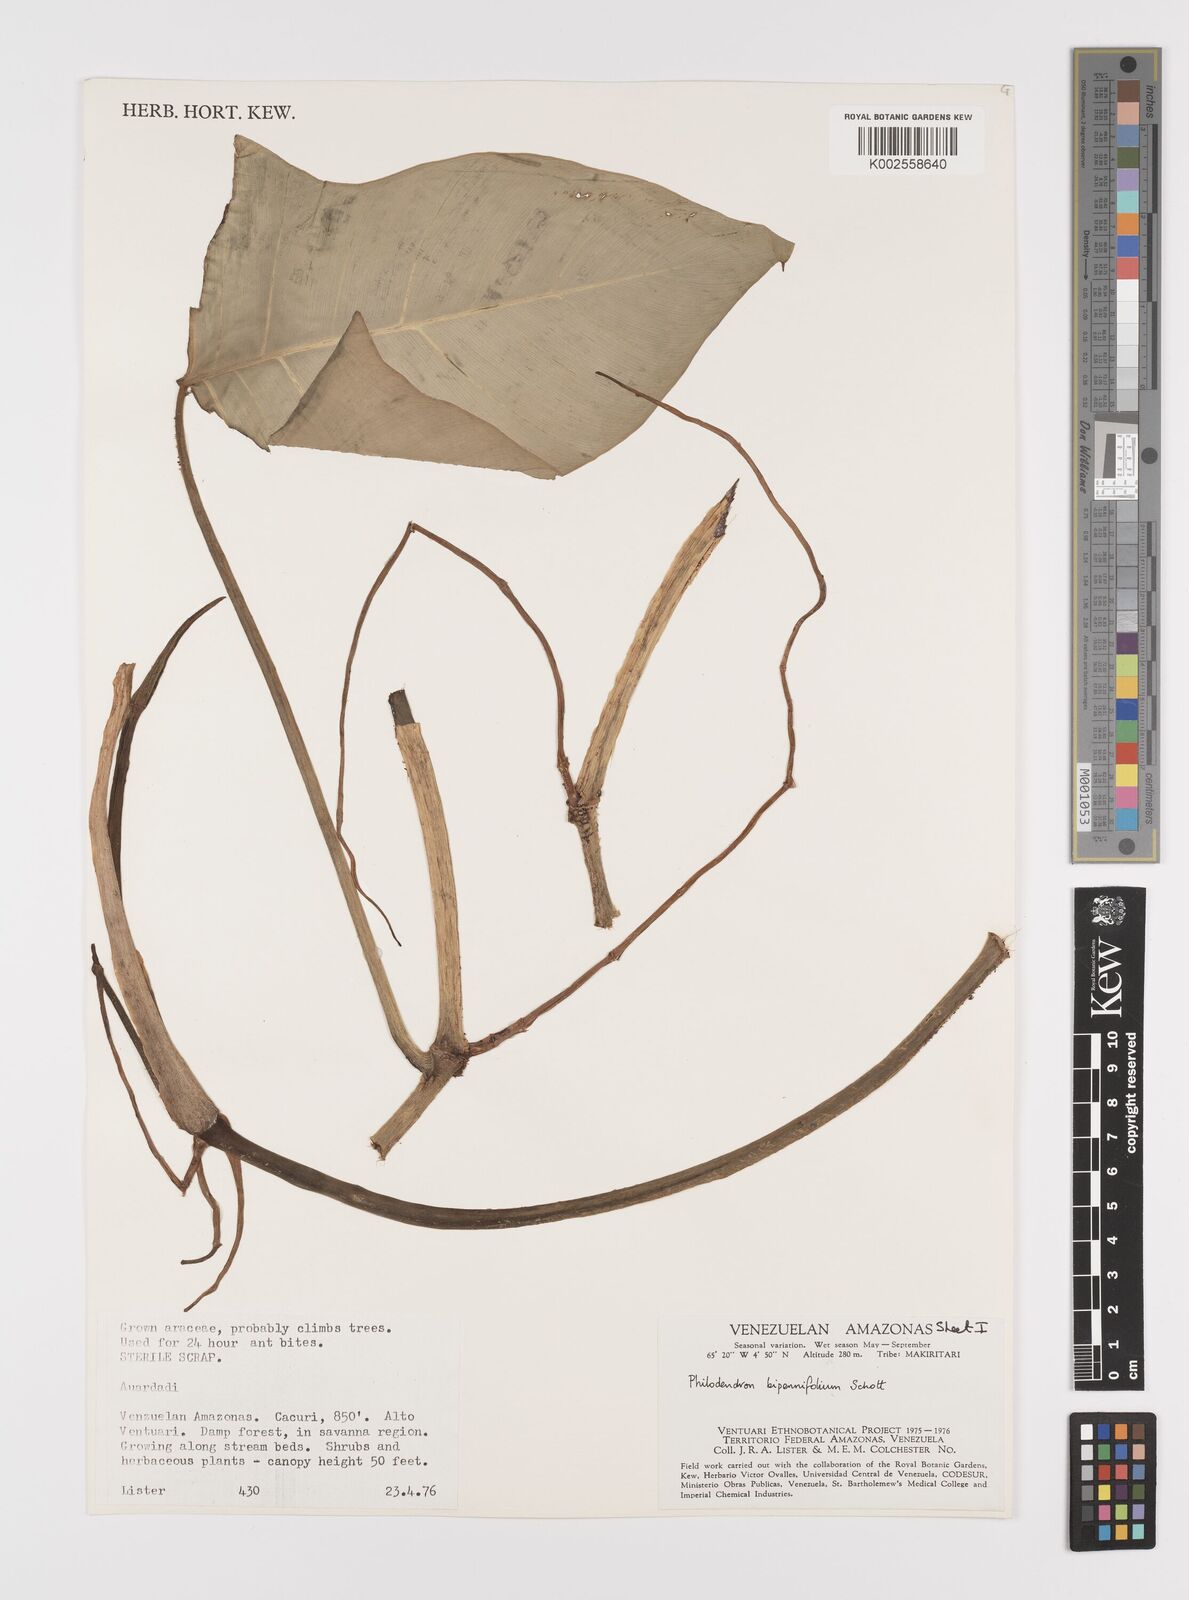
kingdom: Plantae
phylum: Tracheophyta
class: Liliopsida
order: Alismatales
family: Araceae
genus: Philodendron
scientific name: Philodendron bipennifolium
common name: Fiddle-leaf philodendron
